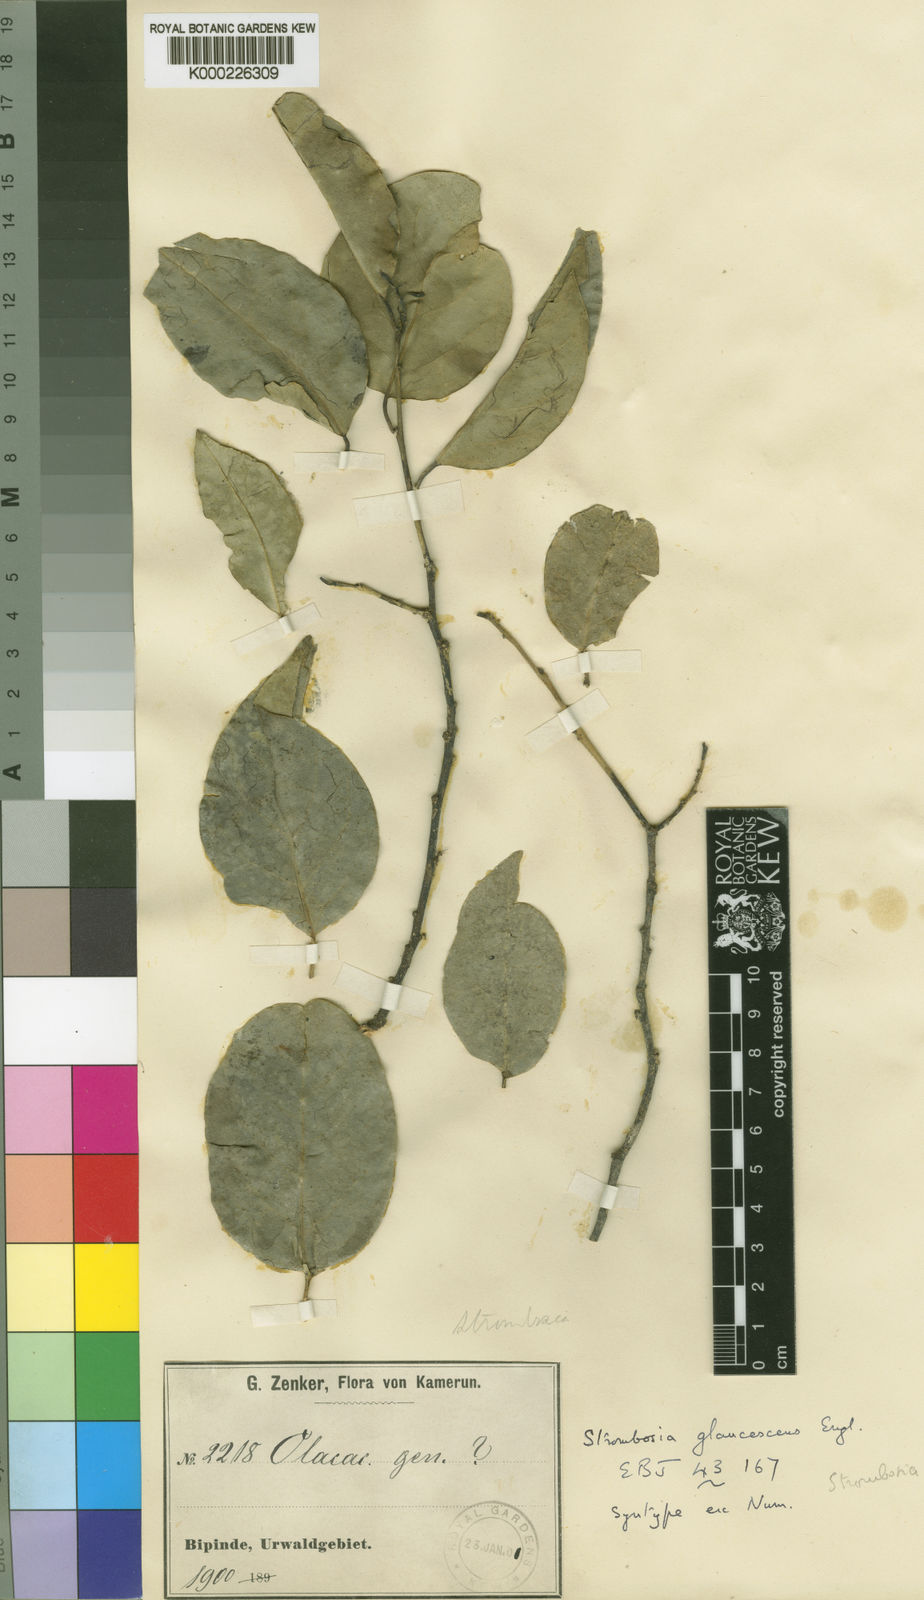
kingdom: Plantae
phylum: Tracheophyta
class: Magnoliopsida
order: Santalales
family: Strombosiaceae
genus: Strombosia
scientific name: Strombosia pustulata
